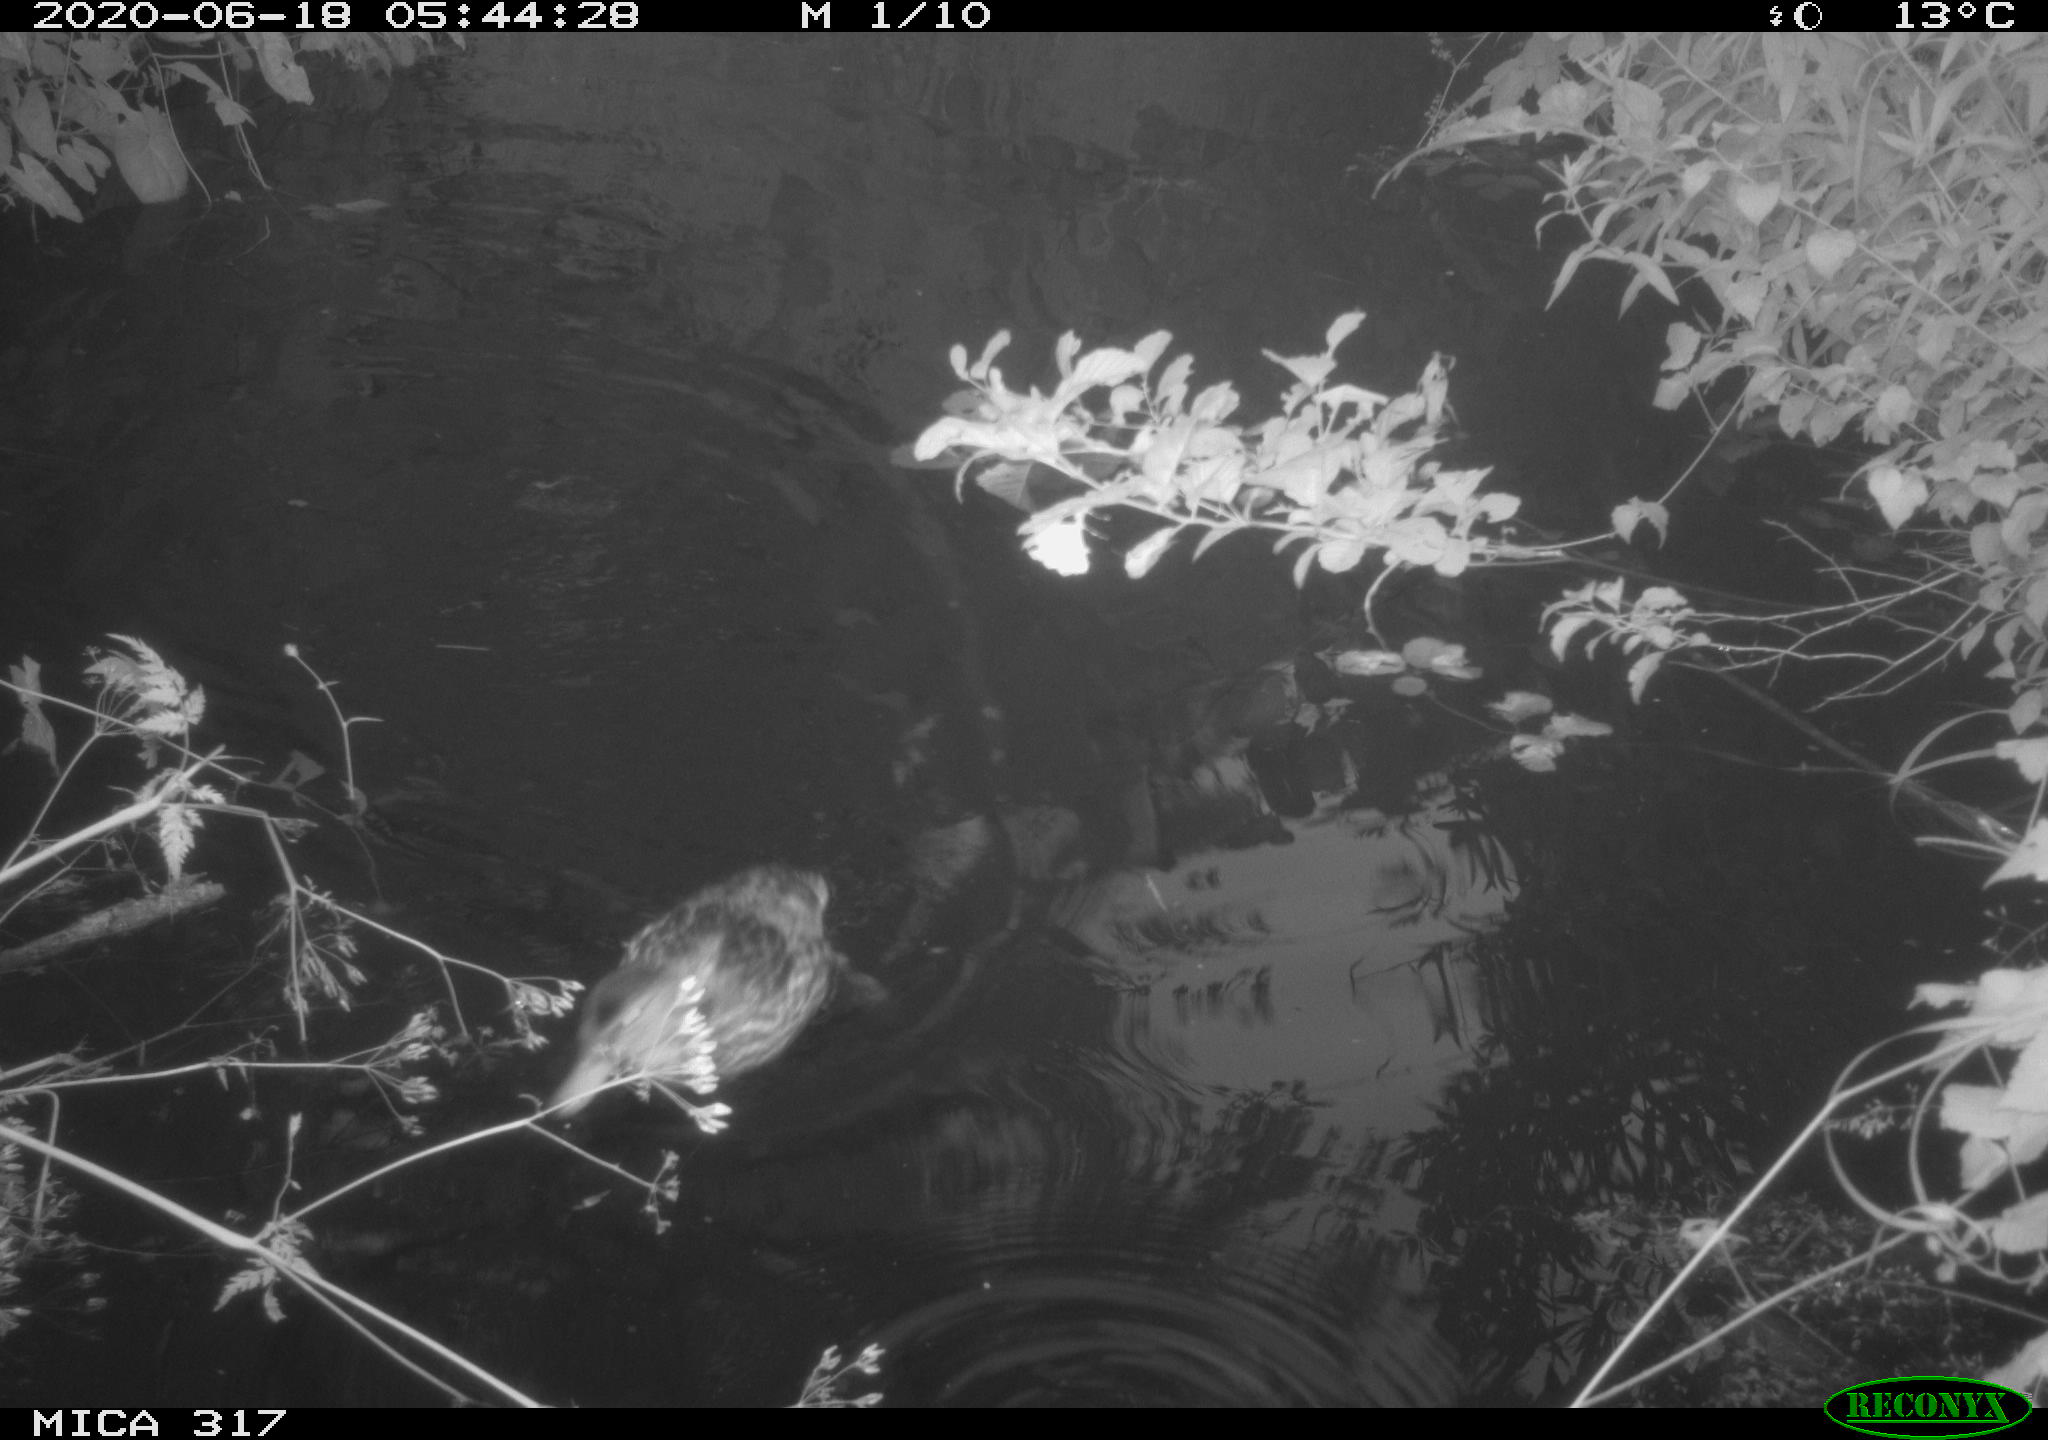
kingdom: Animalia
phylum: Chordata
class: Aves
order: Anseriformes
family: Anatidae
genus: Anas
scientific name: Anas platyrhynchos
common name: Mallard
